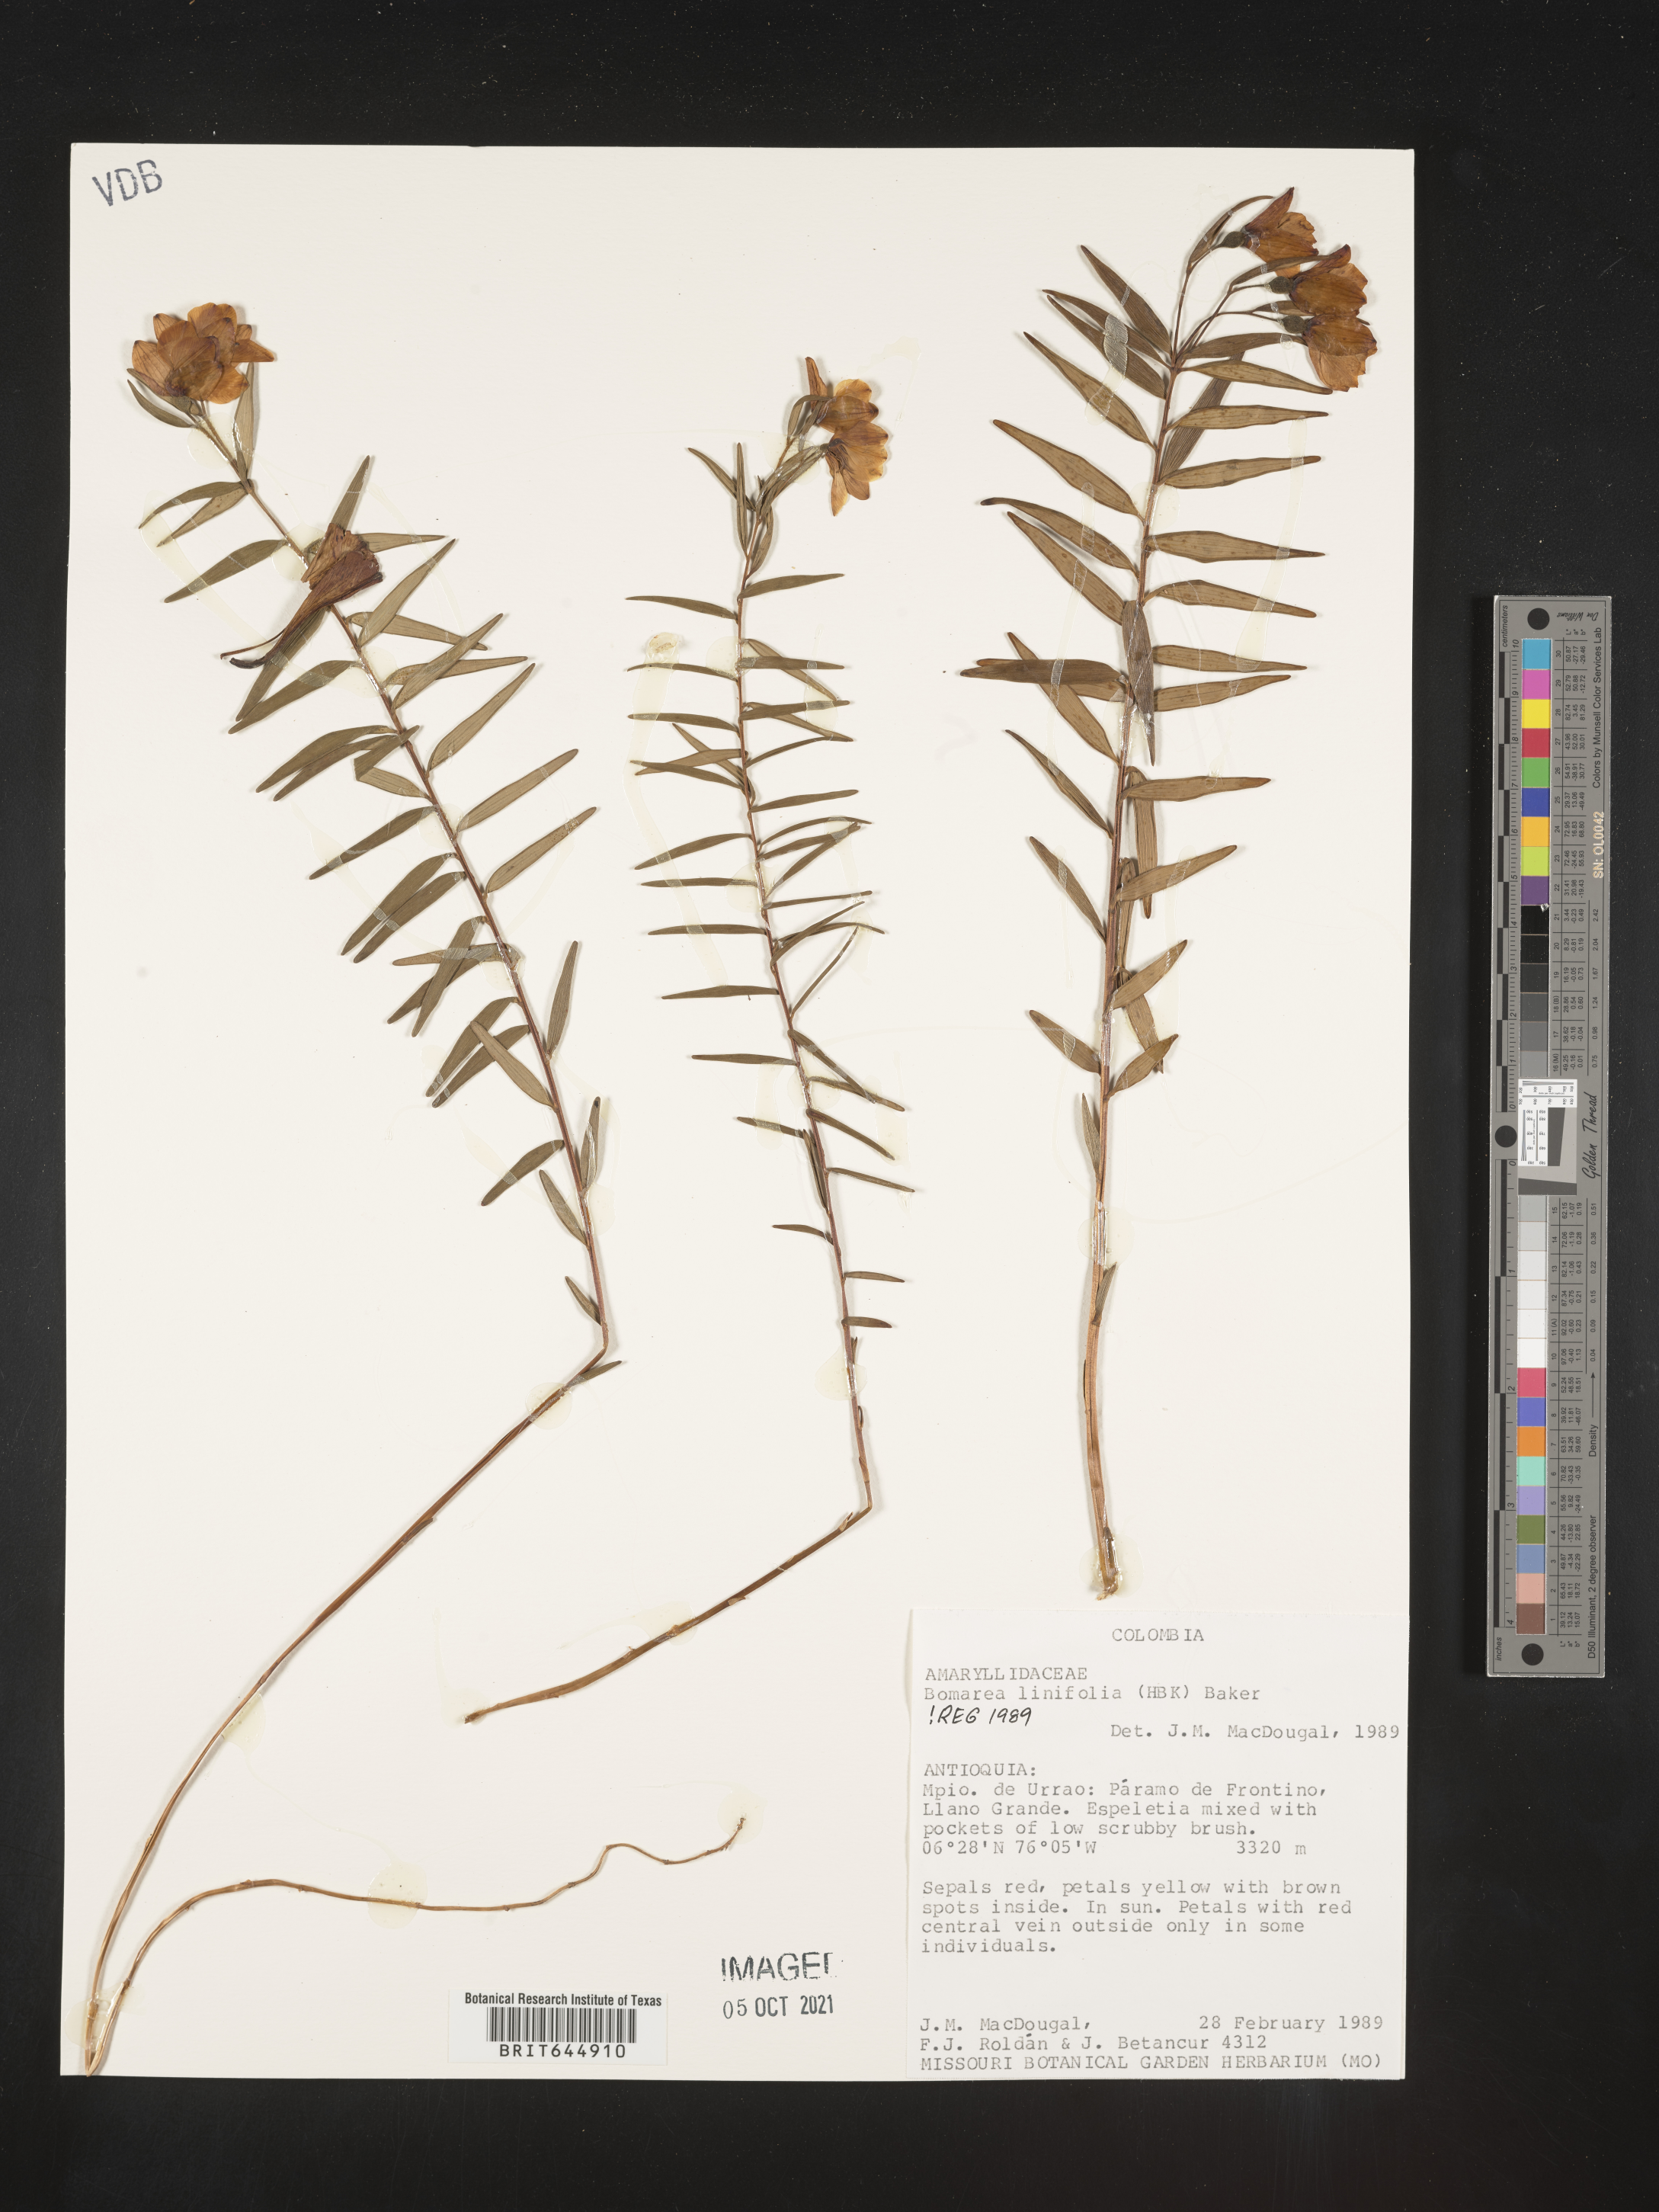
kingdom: Plantae
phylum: Tracheophyta
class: Liliopsida
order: Liliales
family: Alstroemeriaceae
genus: Bomarea
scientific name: Bomarea linifolia
